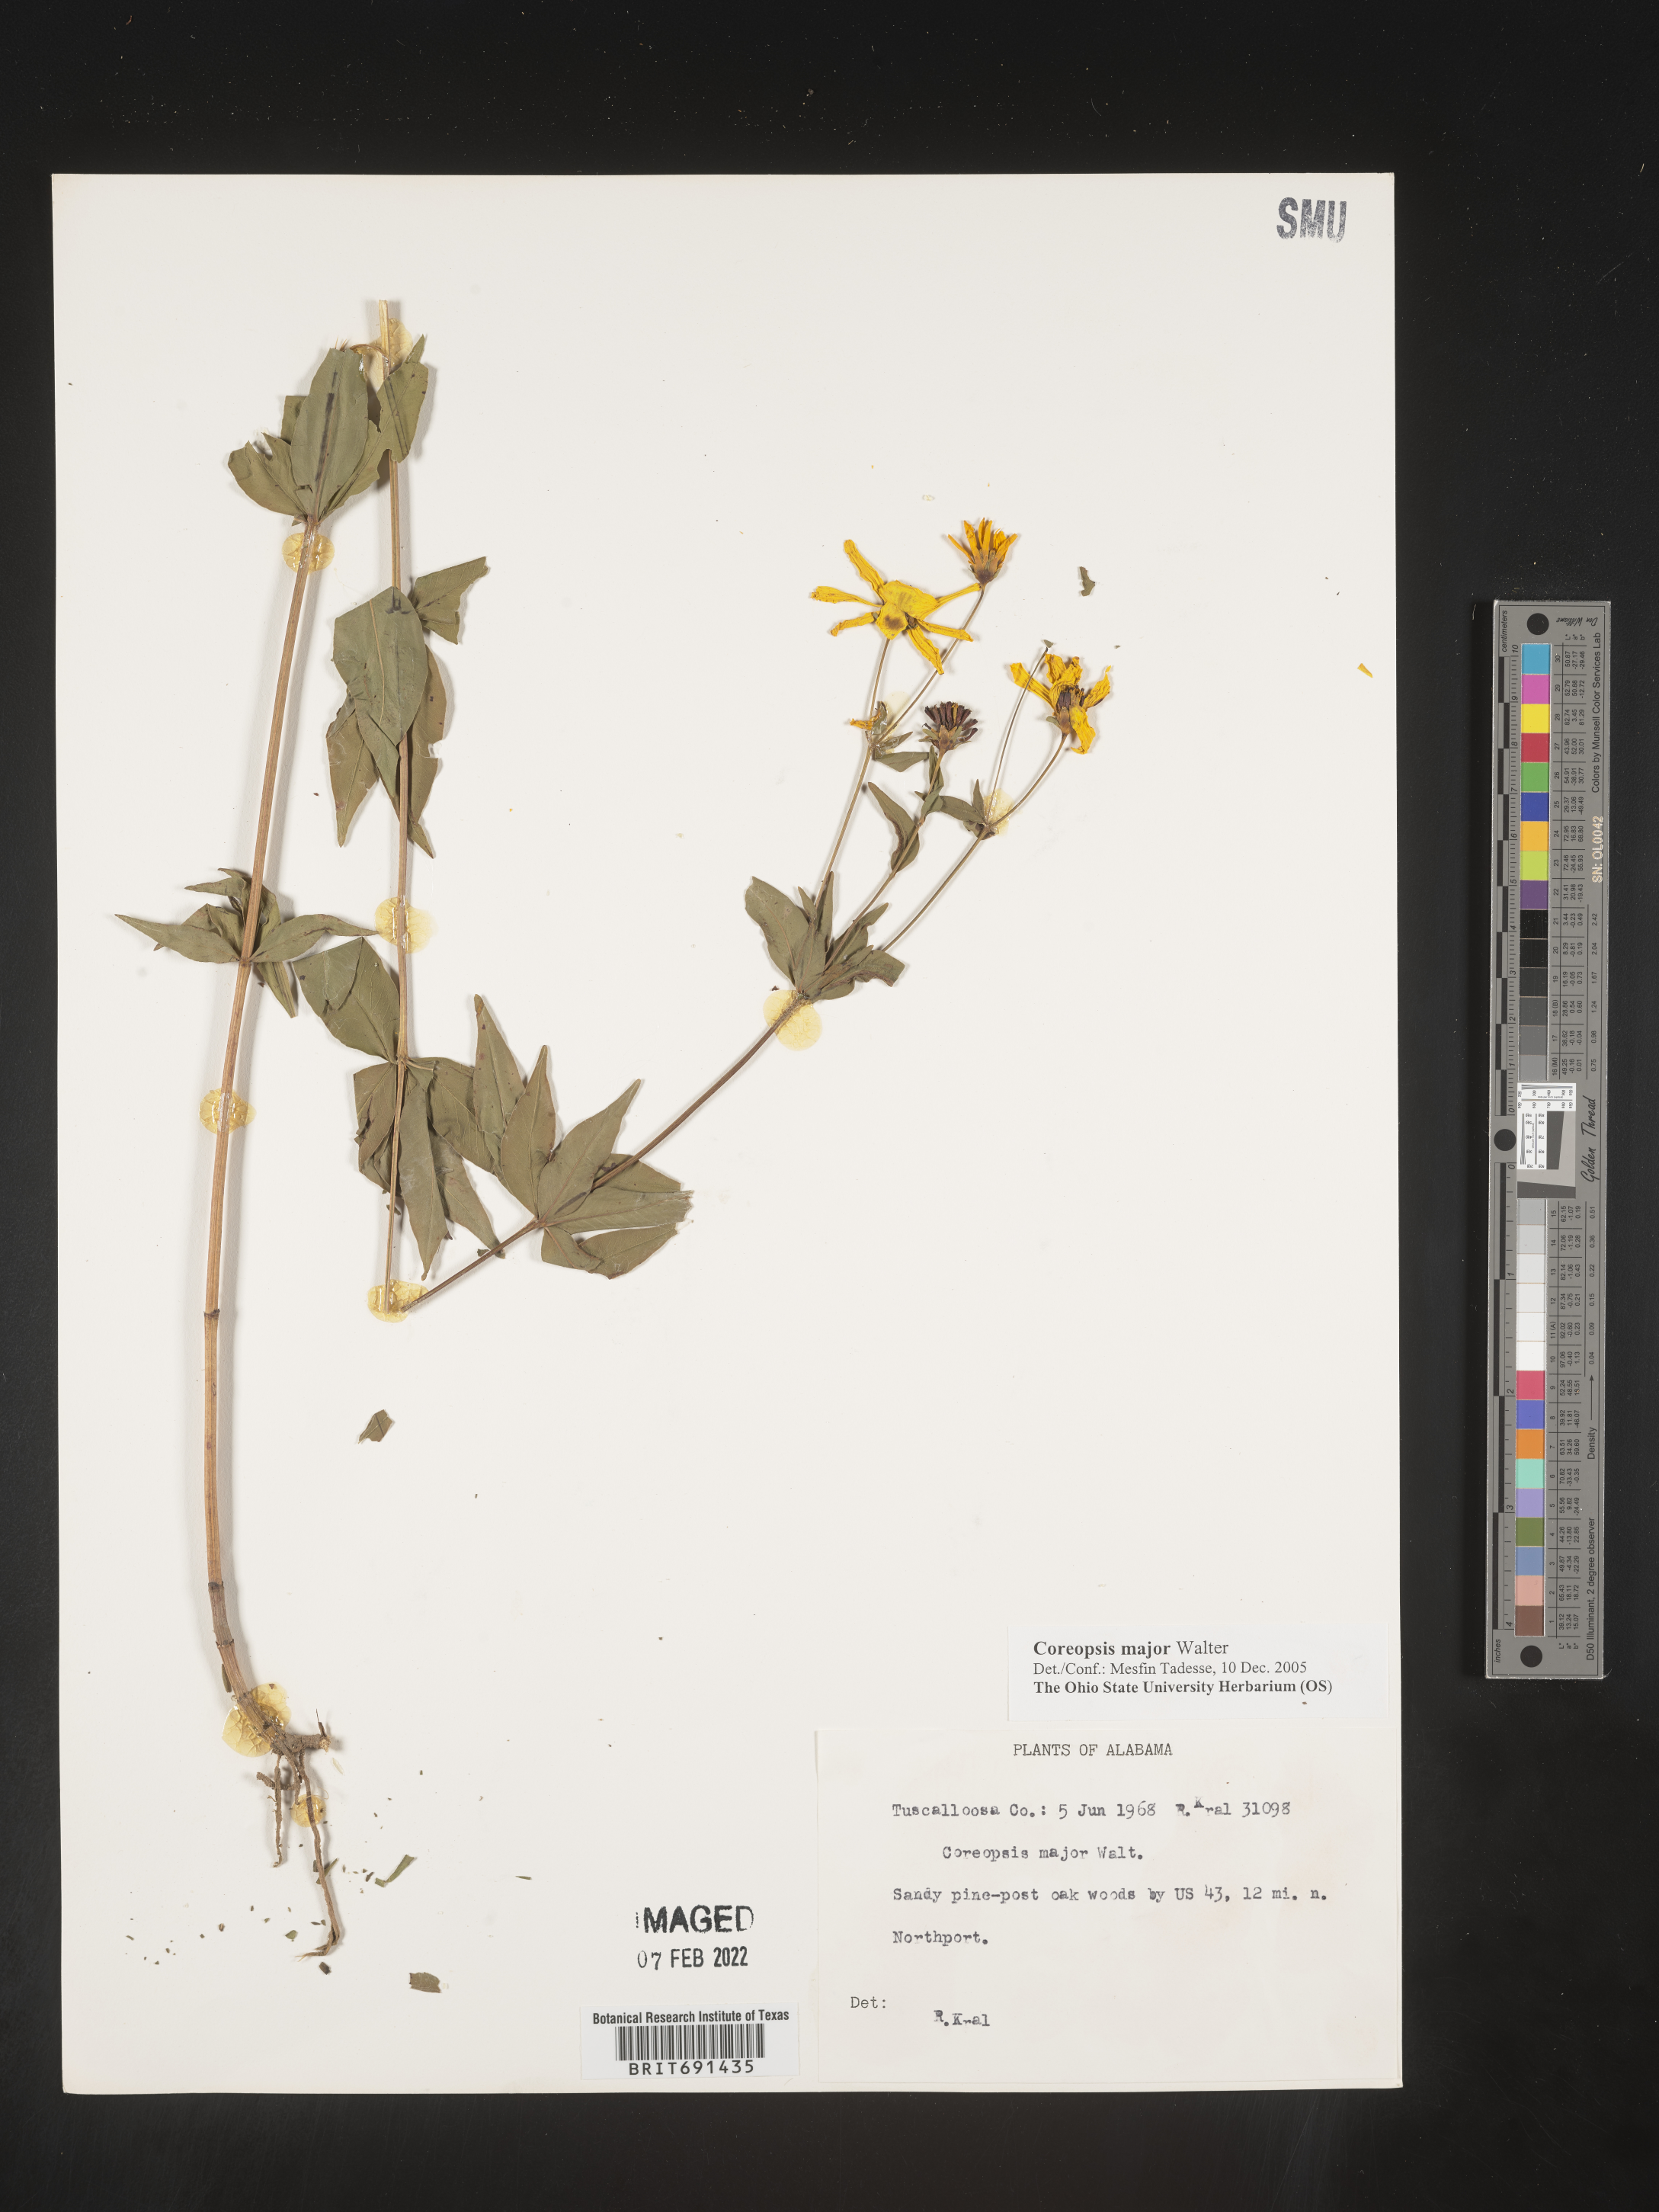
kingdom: Plantae
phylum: Tracheophyta
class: Magnoliopsida
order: Asterales
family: Asteraceae
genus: Coreopsis
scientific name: Coreopsis major
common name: Forest tickseed
